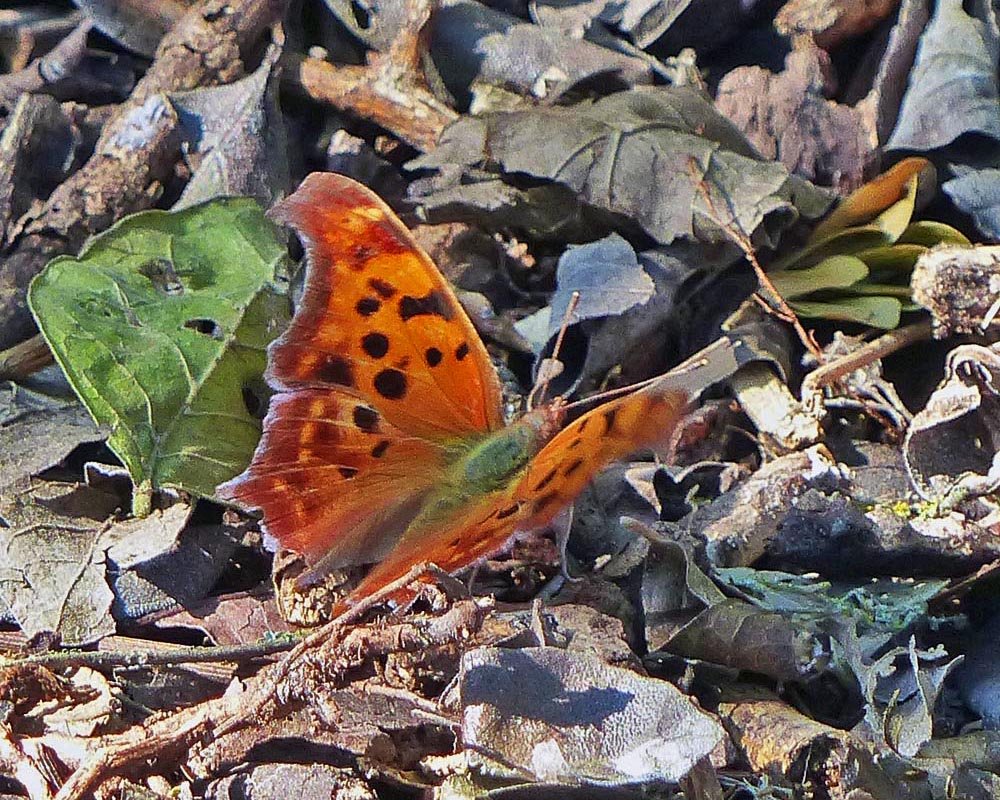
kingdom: Animalia
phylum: Arthropoda
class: Insecta
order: Lepidoptera
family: Nymphalidae
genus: Polygonia
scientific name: Polygonia interrogationis
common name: Question Mark
